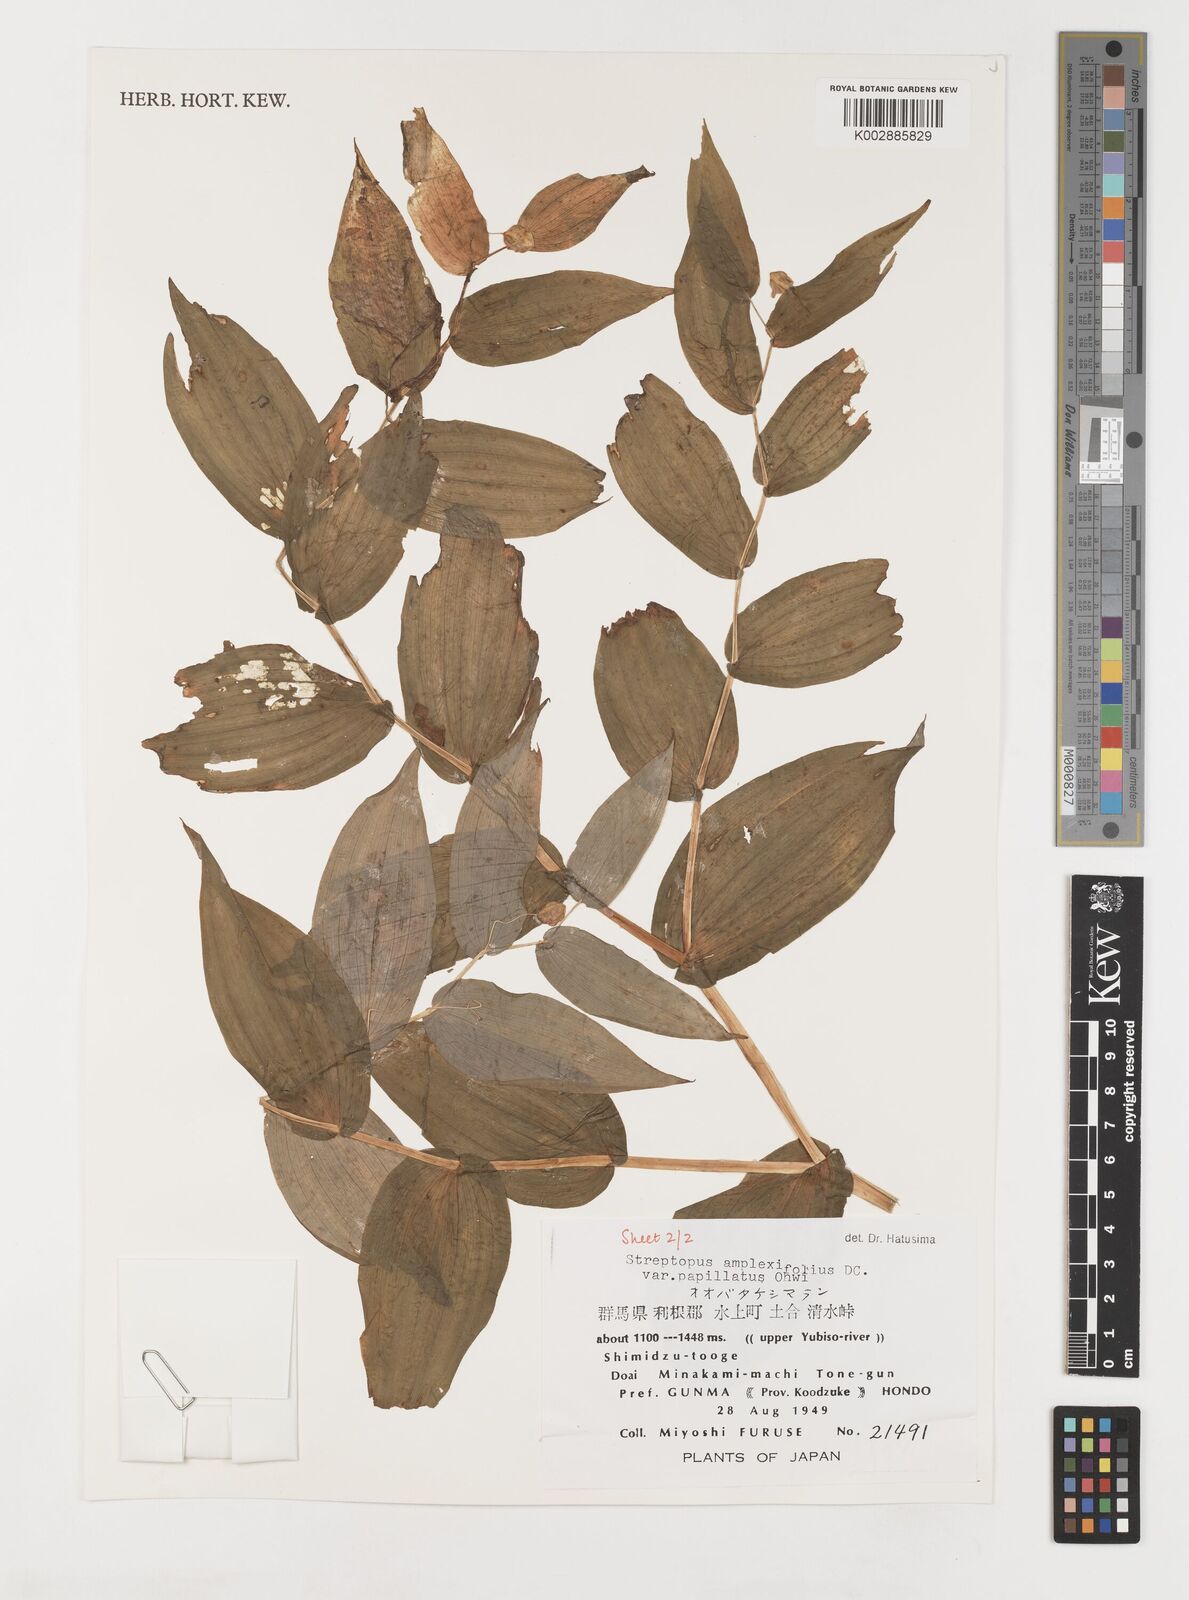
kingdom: Plantae
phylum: Tracheophyta
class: Liliopsida
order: Liliales
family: Liliaceae
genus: Streptopus
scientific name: Streptopus amplexifolius
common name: Clasp twisted stalk
